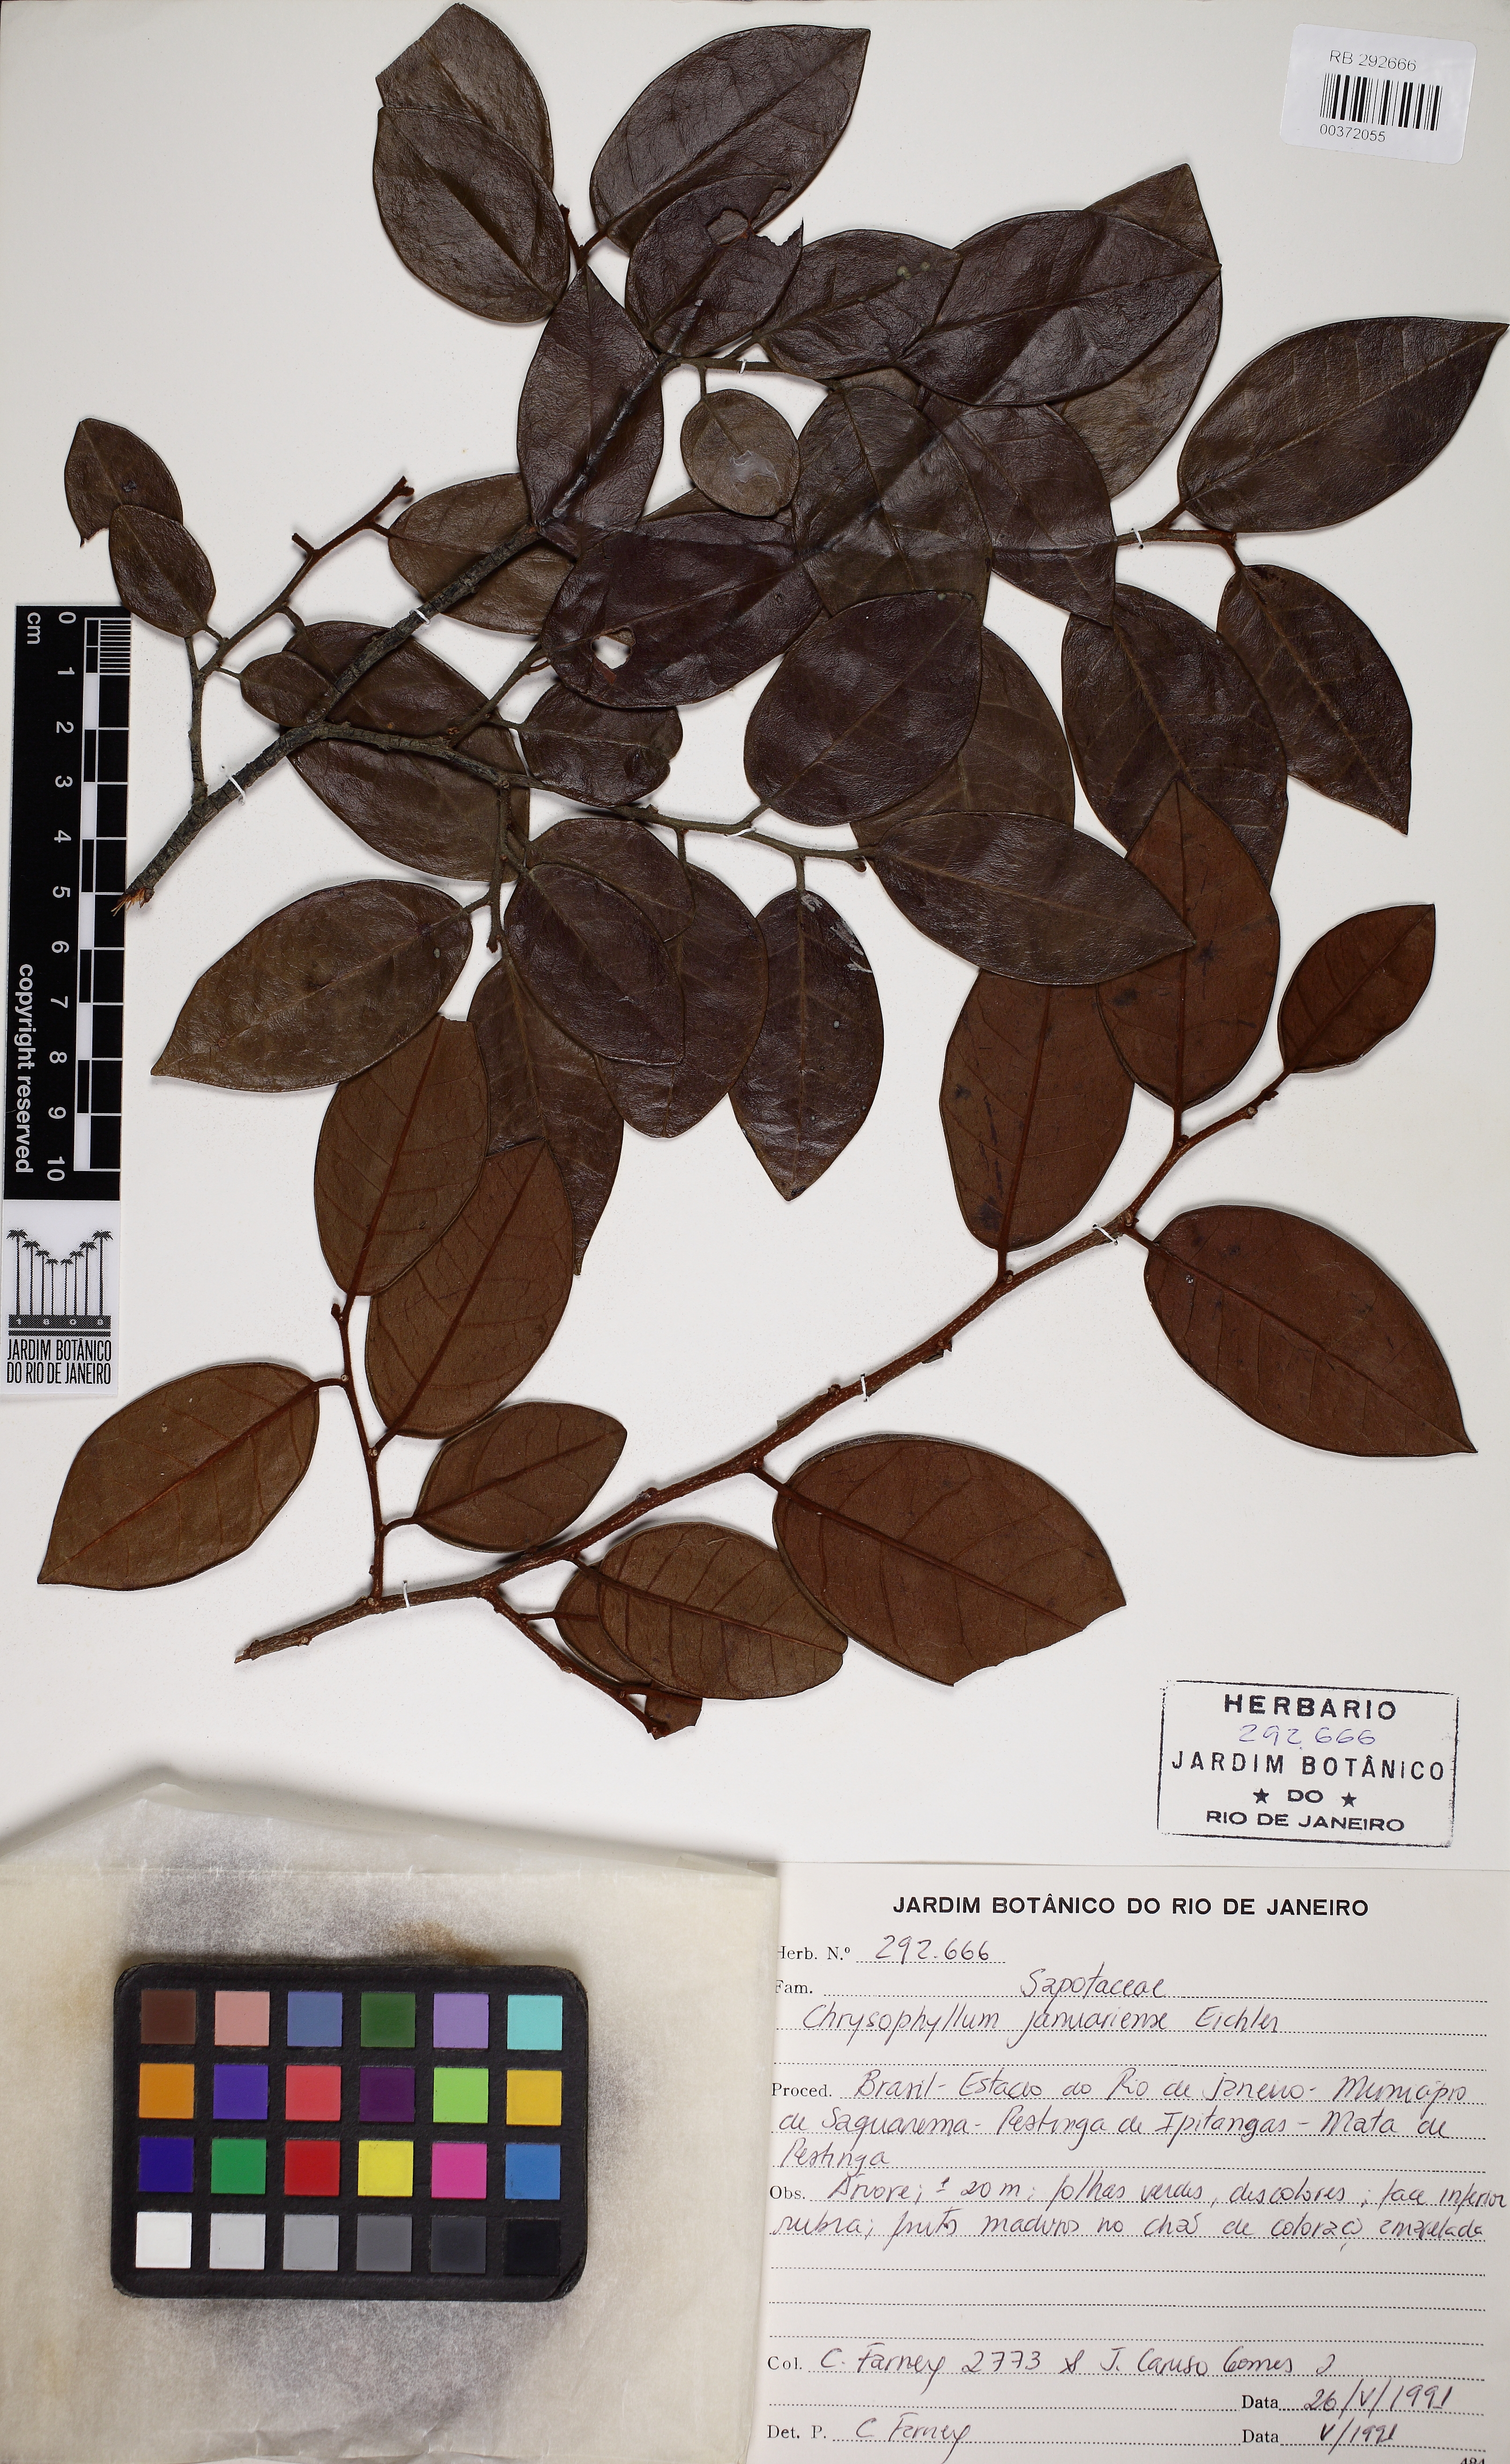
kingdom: Plantae
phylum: Tracheophyta
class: Magnoliopsida
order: Ericales
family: Sapotaceae
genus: Chrysophyllum
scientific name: Chrysophyllum januariense
